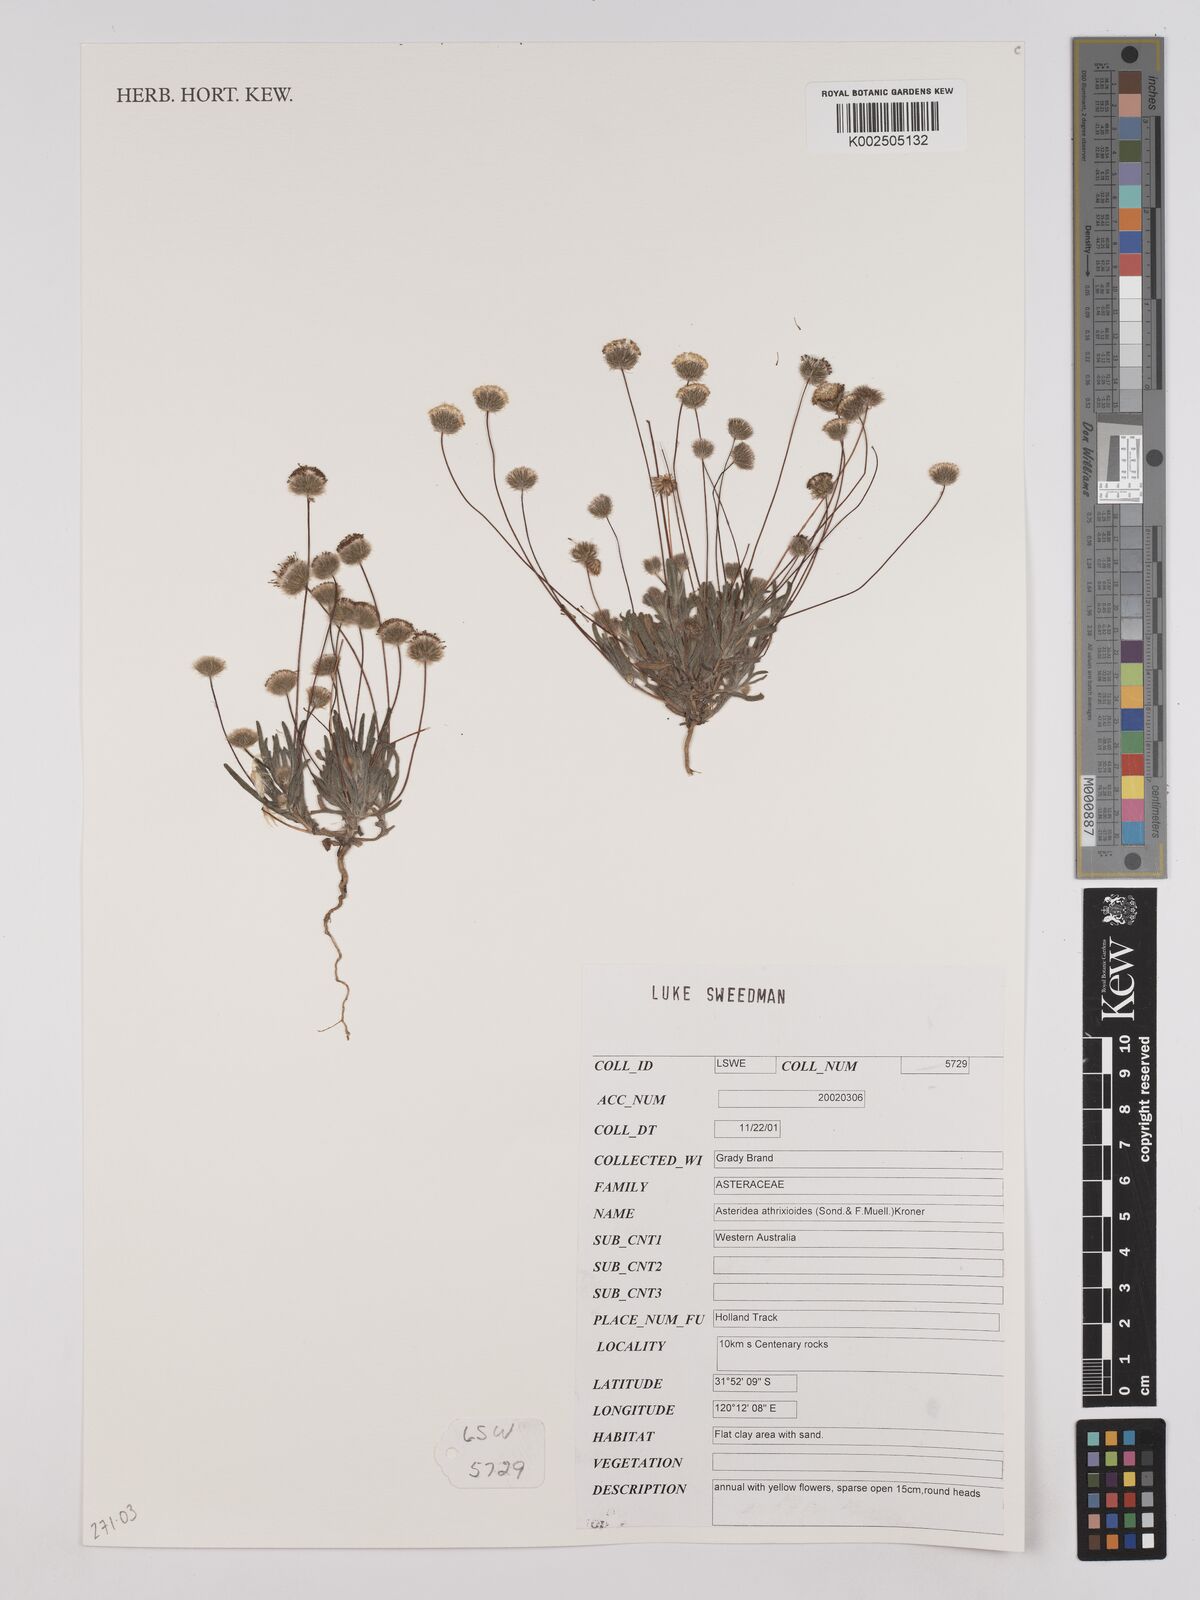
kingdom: Plantae
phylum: Tracheophyta
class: Magnoliopsida
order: Asterales
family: Asteraceae
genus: Asteridea
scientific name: Asteridea athrixioides
